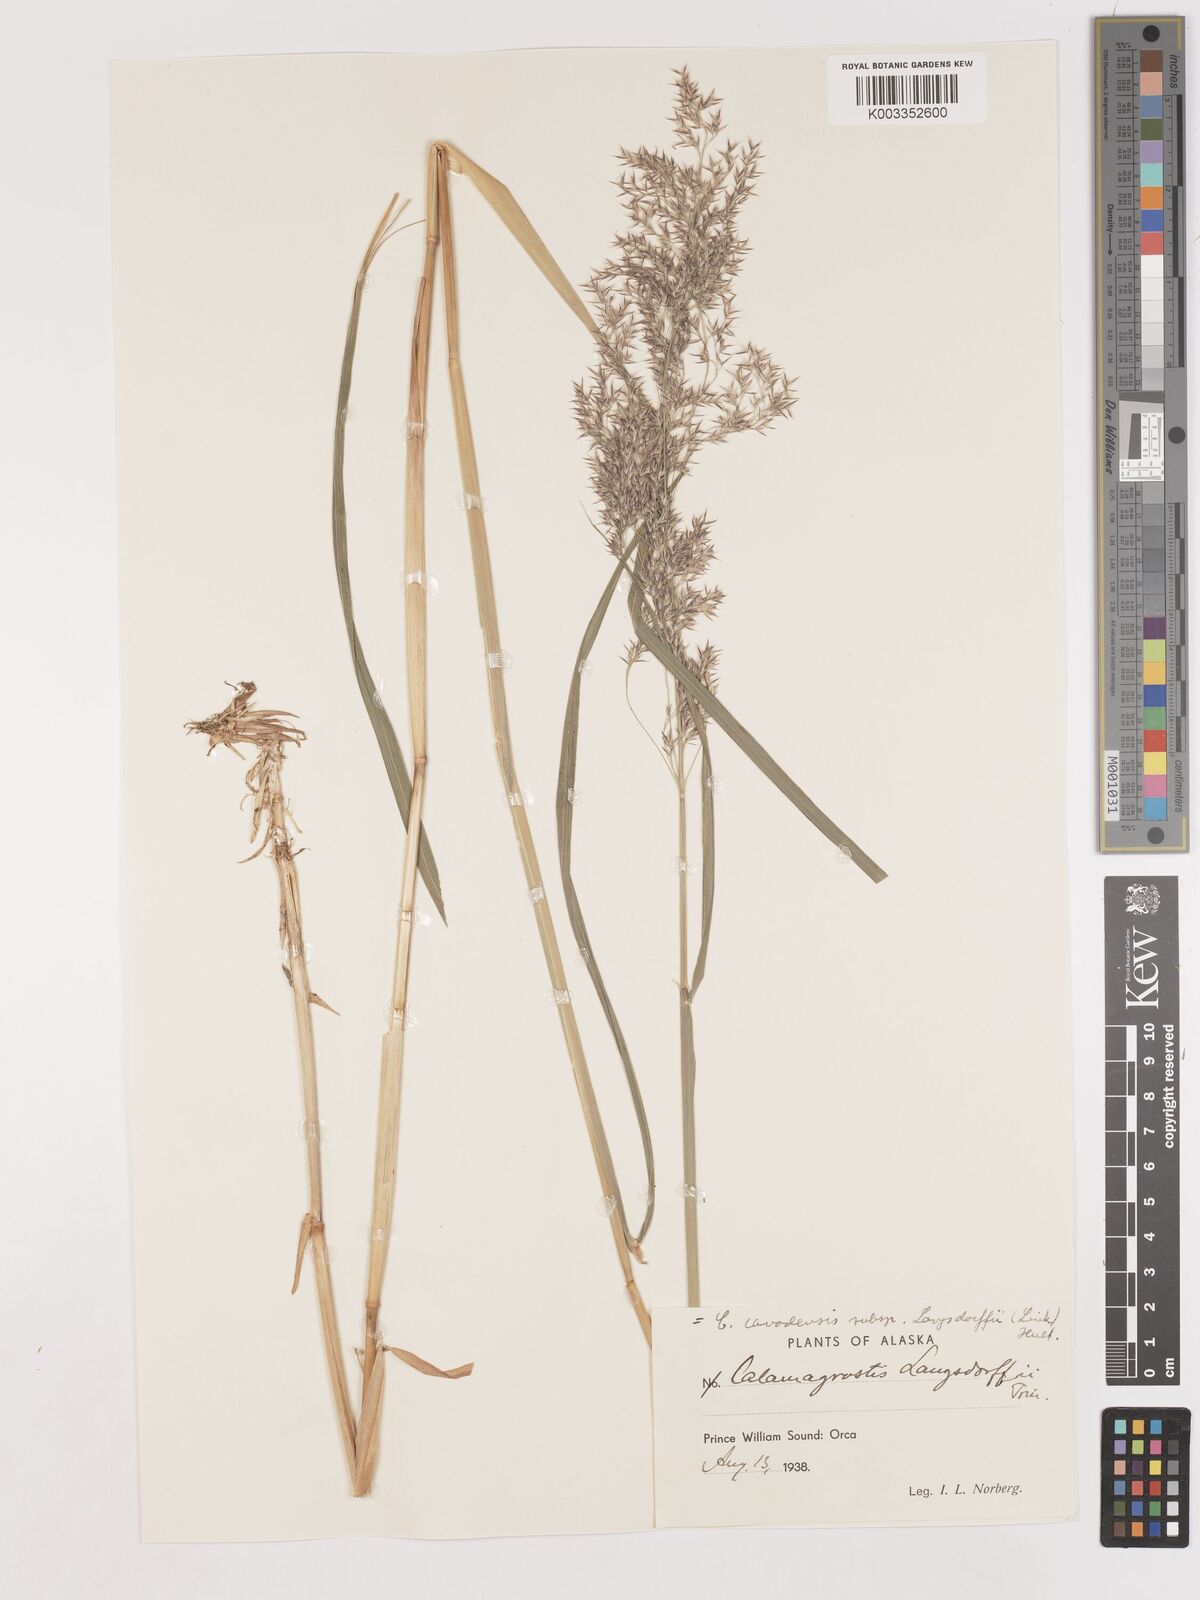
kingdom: Plantae
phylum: Tracheophyta
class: Liliopsida
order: Poales
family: Poaceae
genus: Calamagrostis
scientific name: Calamagrostis canadensis
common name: Canada bluejoint
